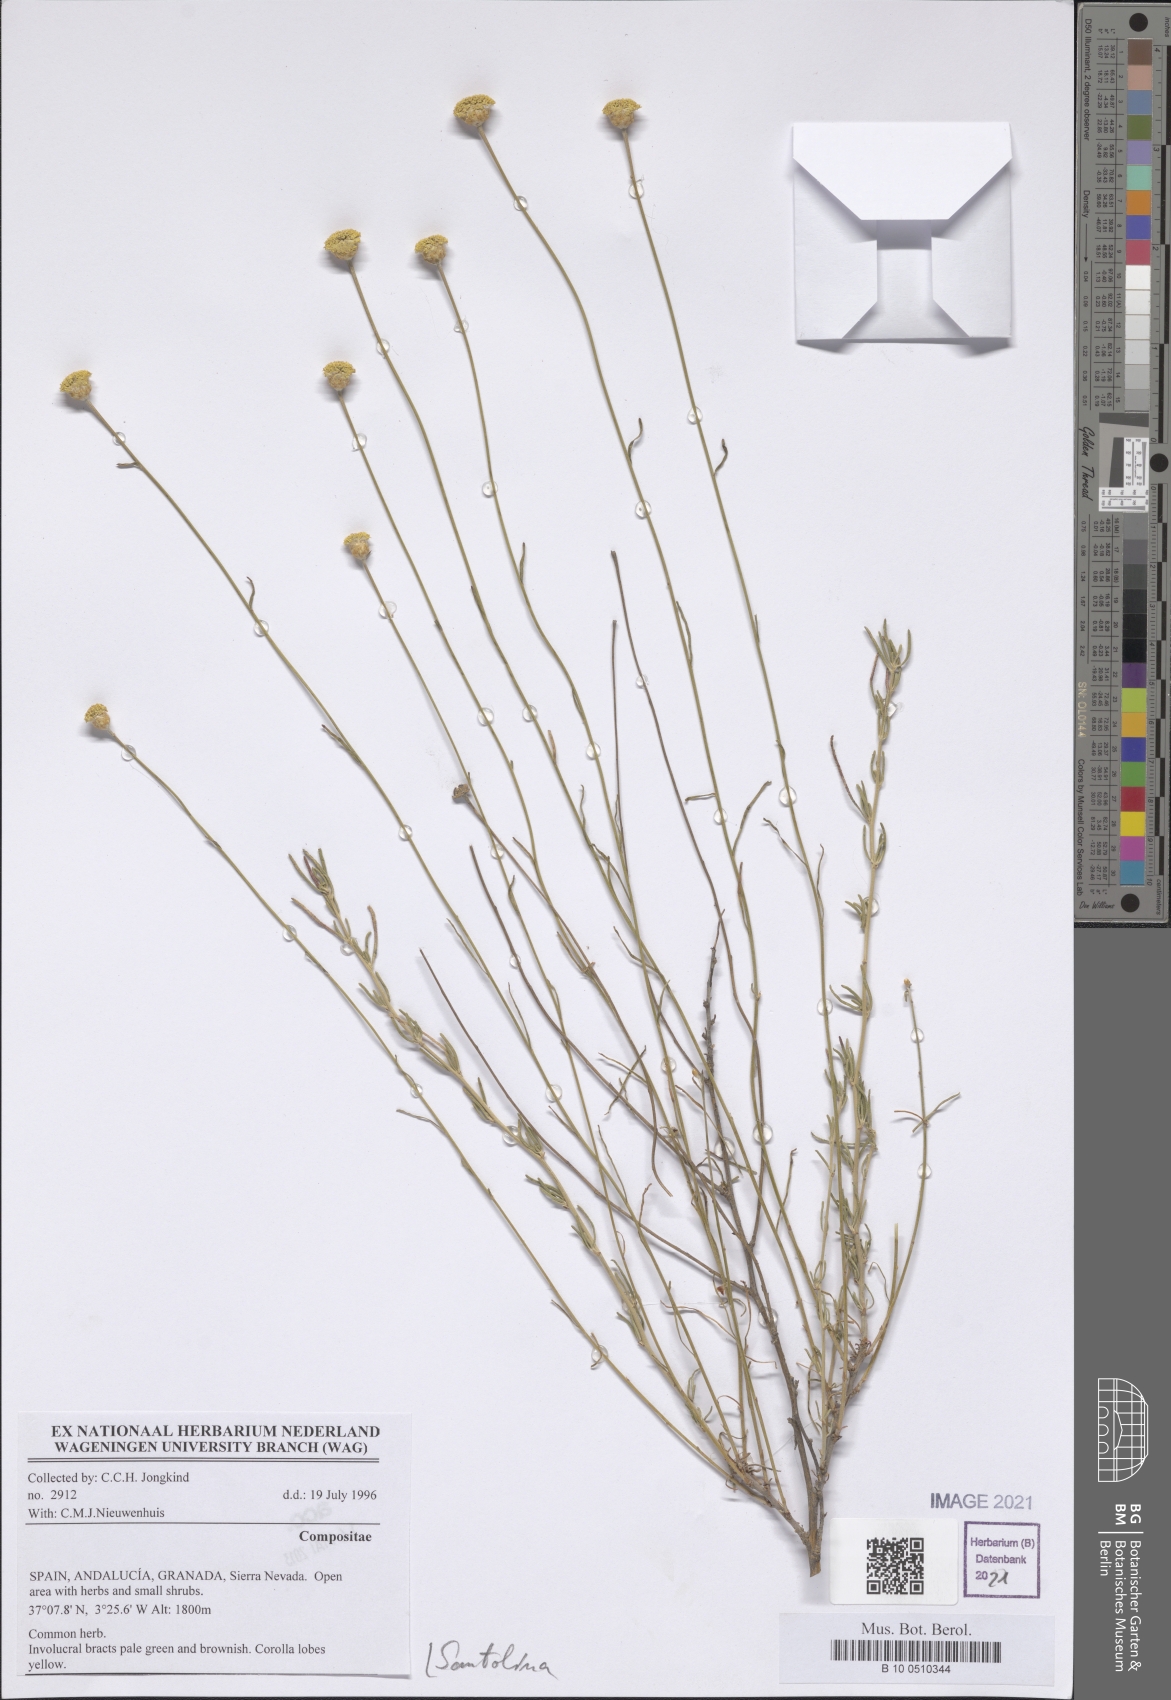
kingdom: Plantae
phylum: Tracheophyta
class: Magnoliopsida
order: Asterales
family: Asteraceae
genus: Santolina
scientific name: Santolina
